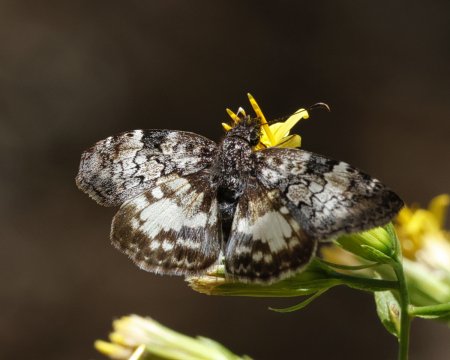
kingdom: Animalia
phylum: Arthropoda
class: Insecta
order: Lepidoptera
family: Hesperiidae
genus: Chiomara
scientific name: Chiomara asychis
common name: White-patched Skipper
